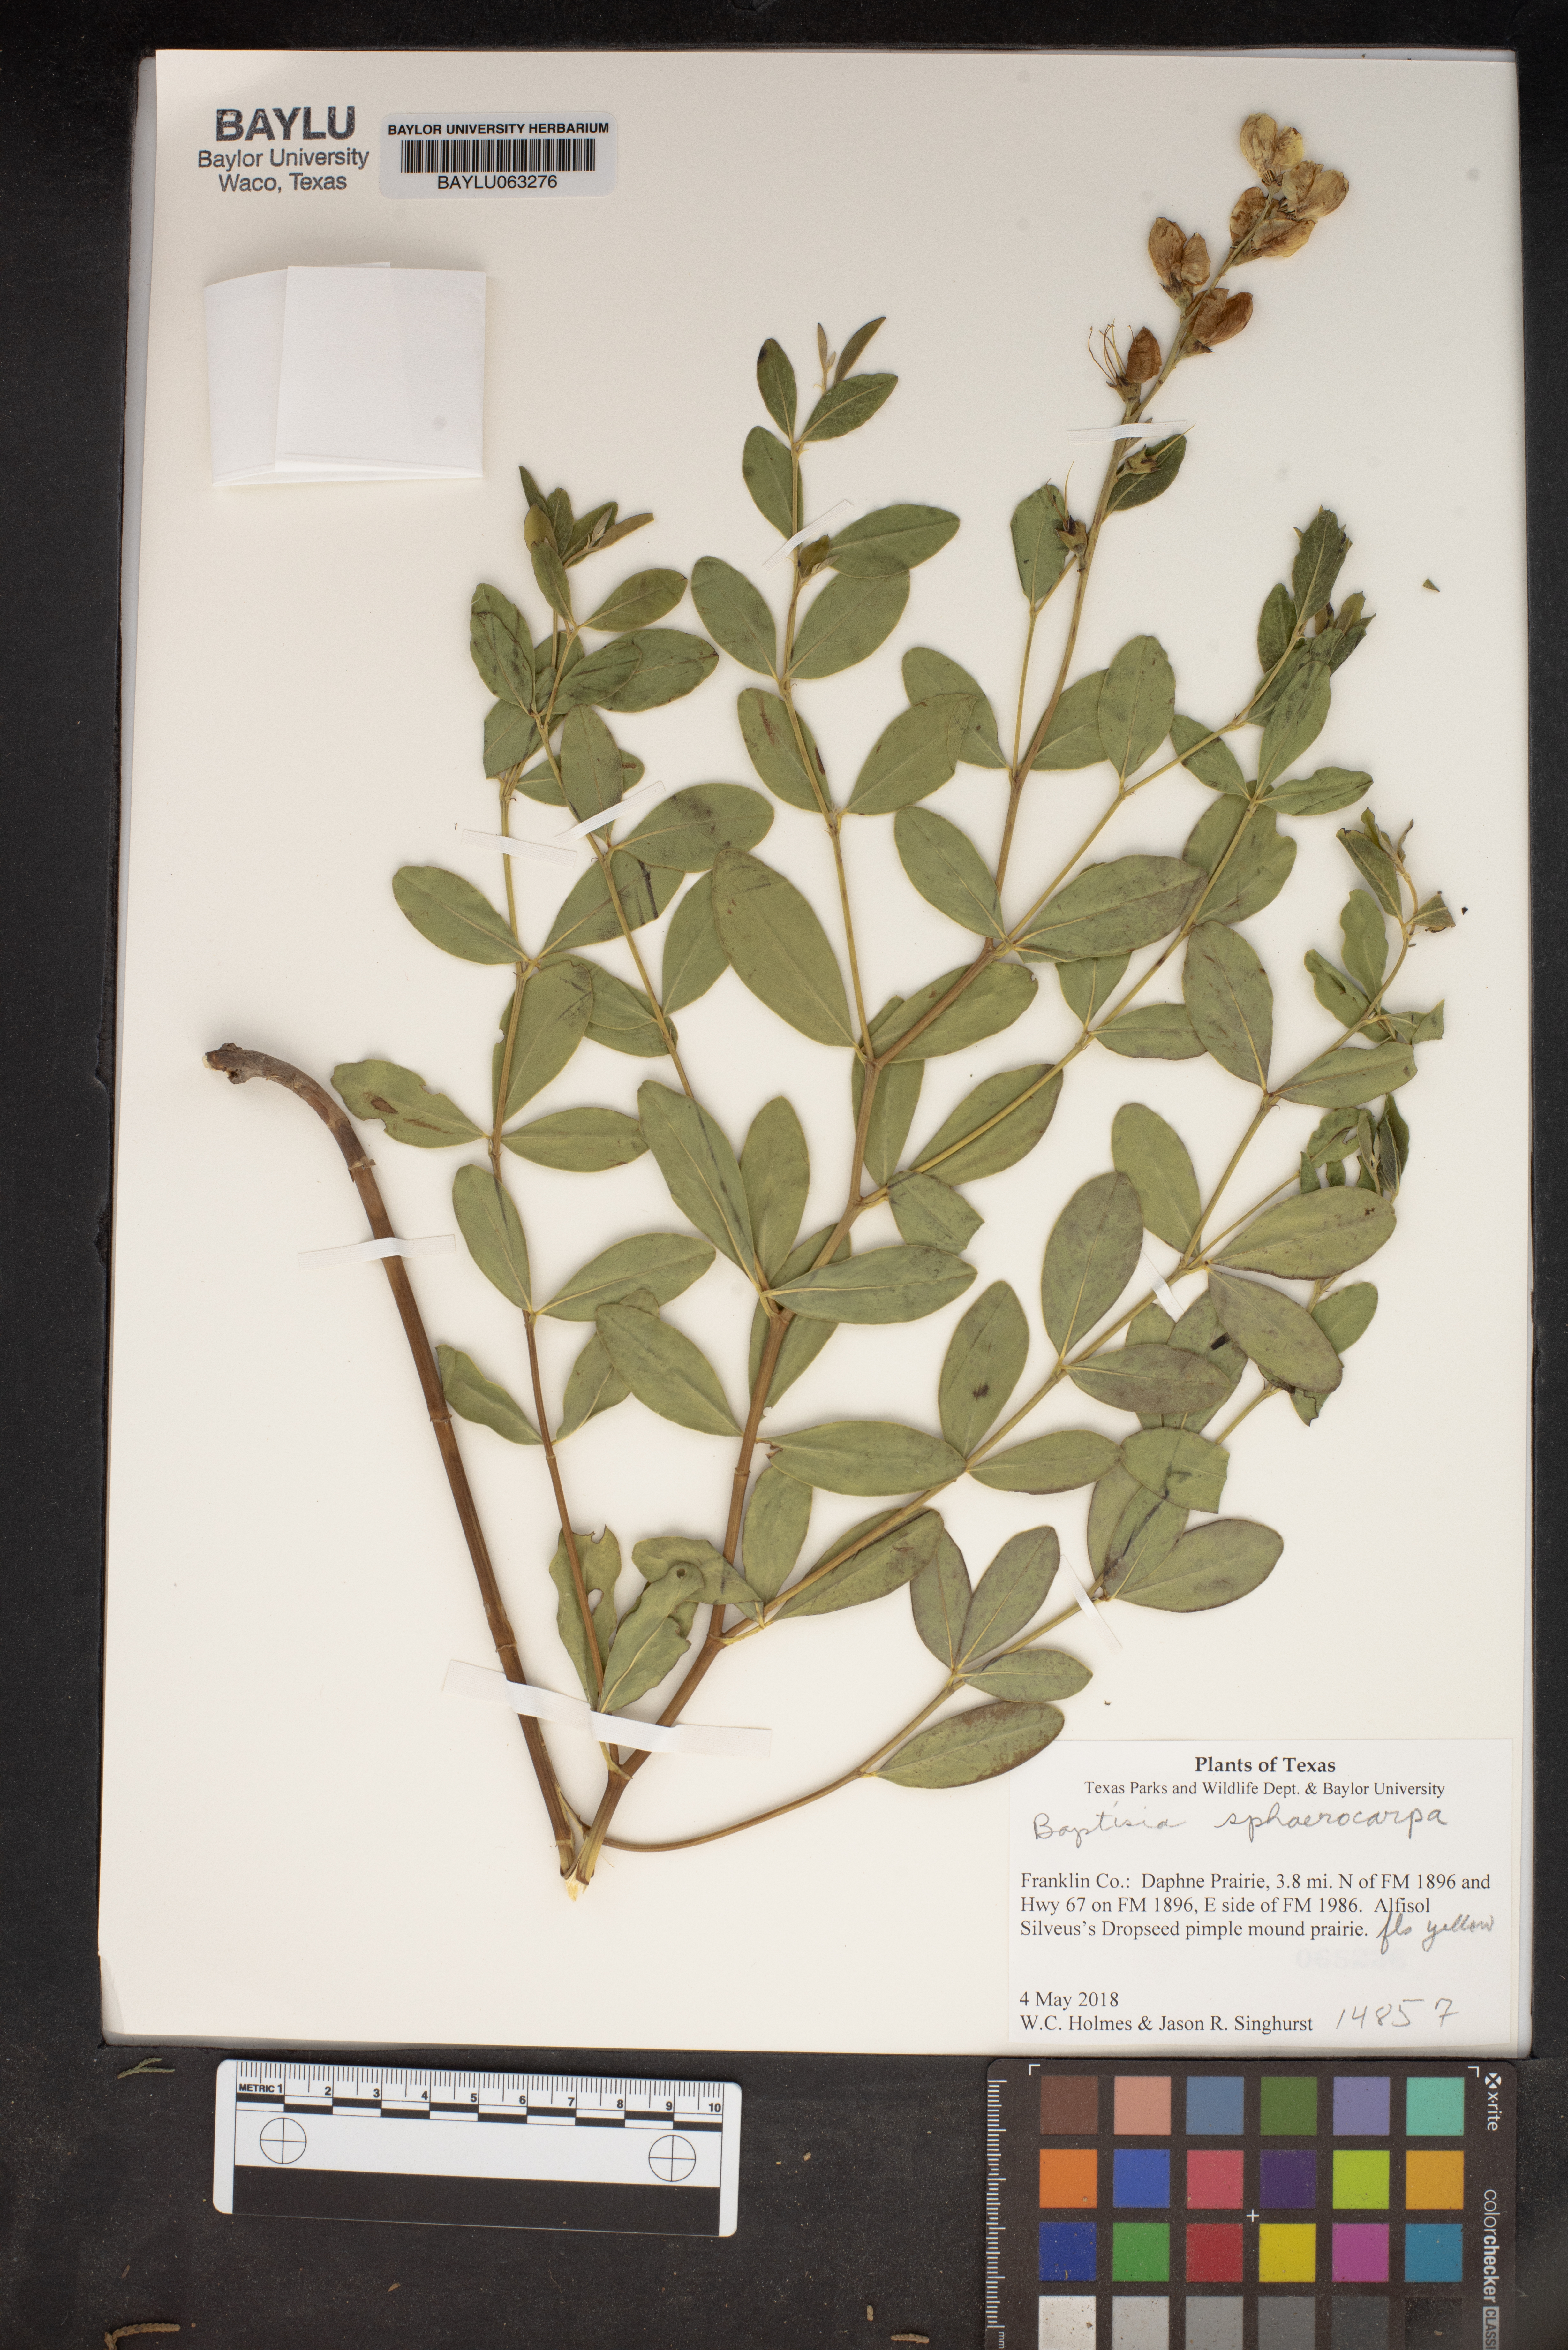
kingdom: Plantae
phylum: Tracheophyta
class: Magnoliopsida
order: Fabales
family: Fabaceae
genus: Baptisia
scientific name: Baptisia sphaerocarpa
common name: Round wild indigo
